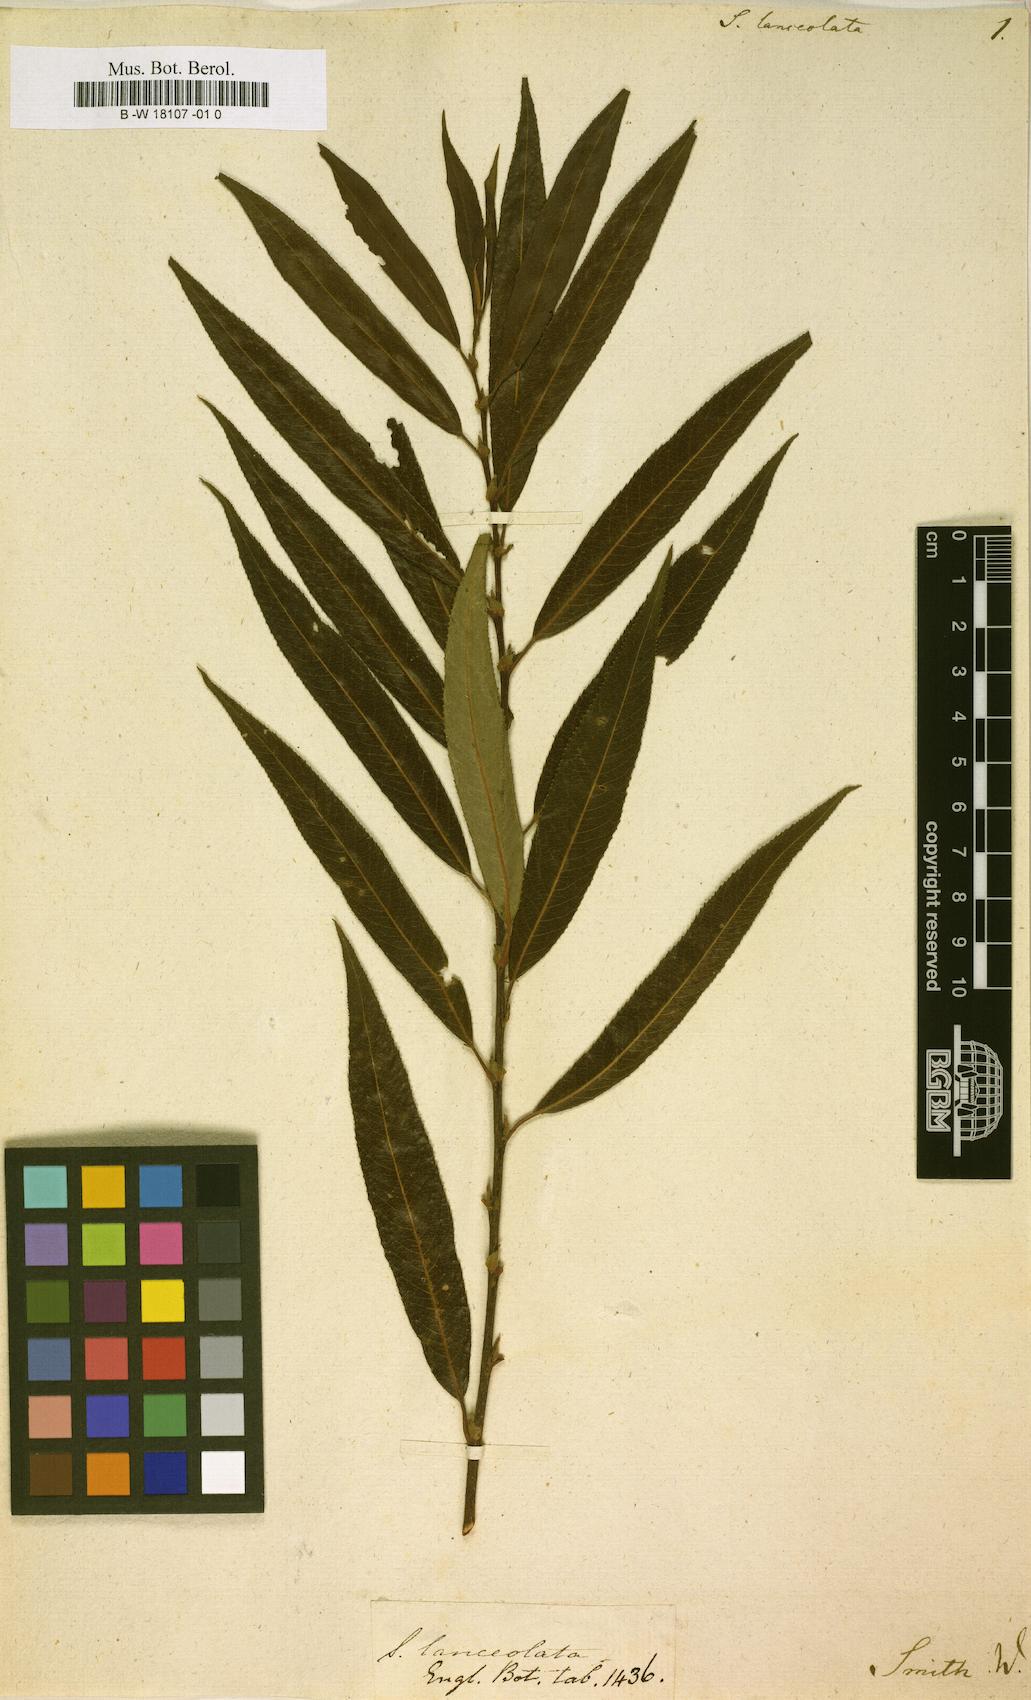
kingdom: Plantae
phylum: Tracheophyta
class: Magnoliopsida
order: Malpighiales
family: Salicaceae
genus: Salix
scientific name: Salix
